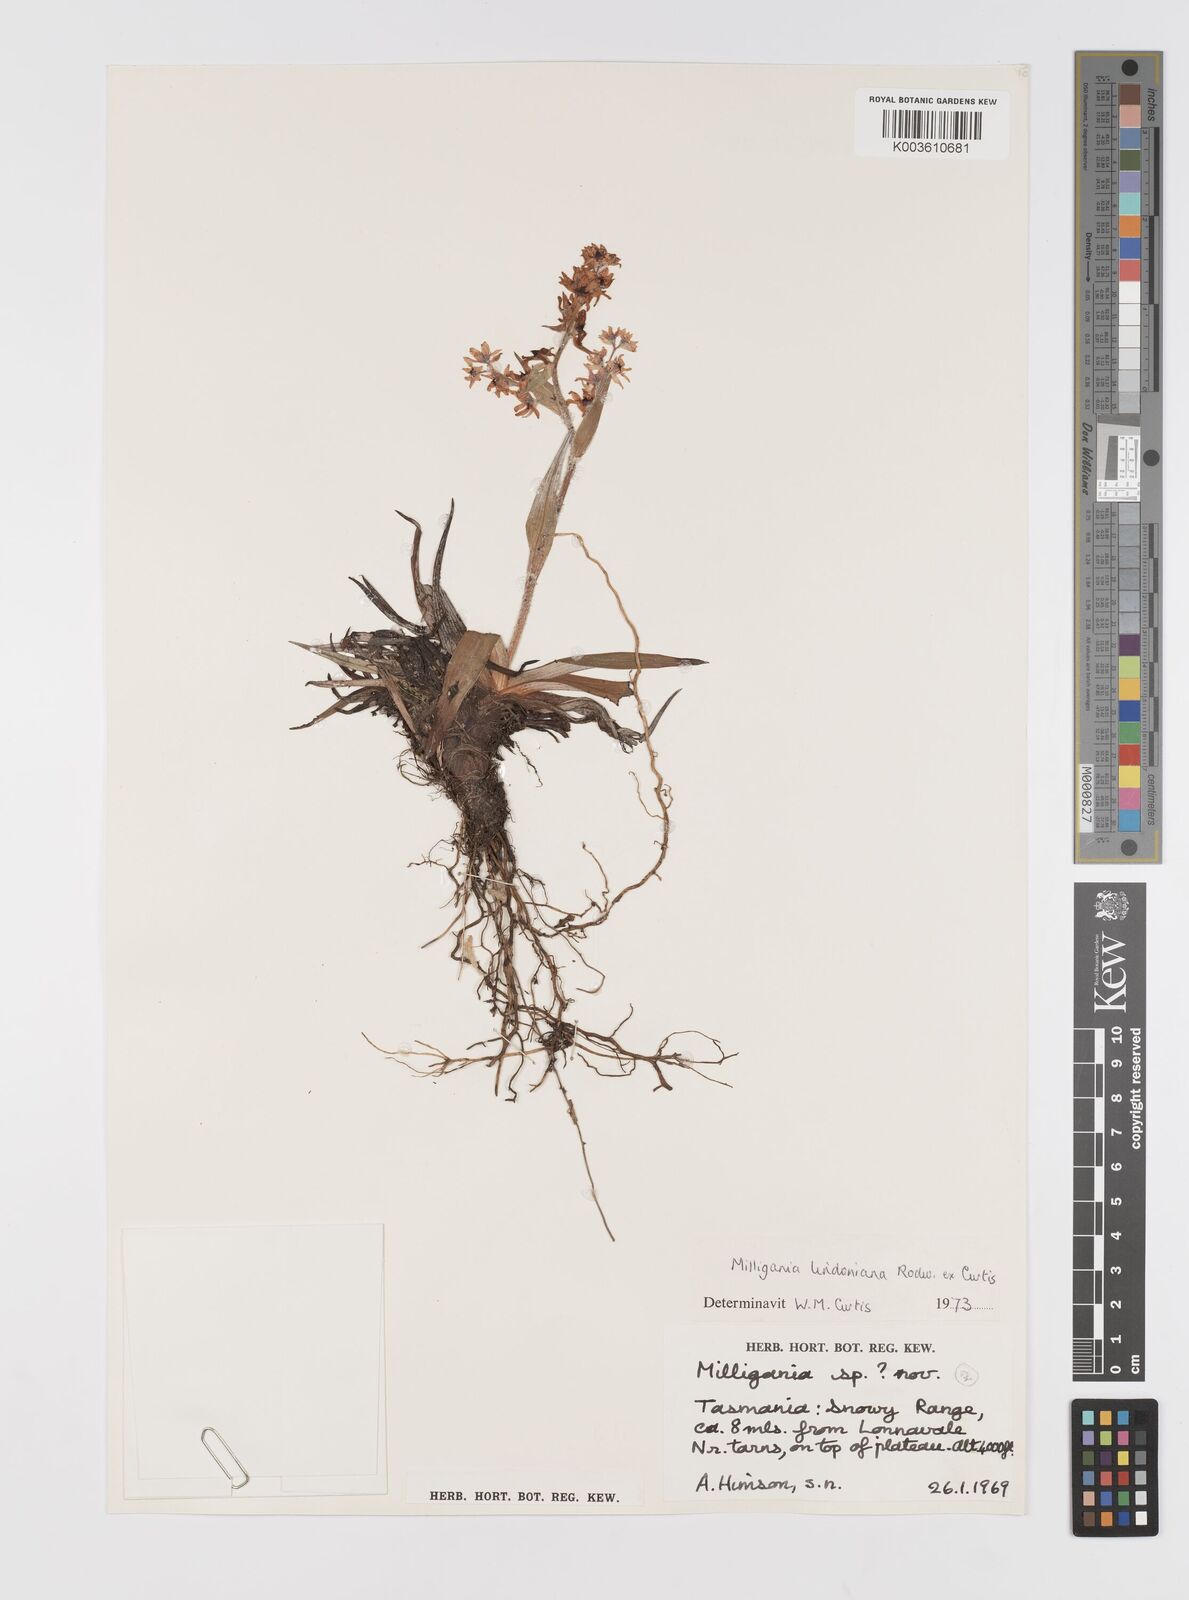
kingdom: Plantae
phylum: Tracheophyta
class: Liliopsida
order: Asparagales
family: Asteliaceae
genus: Milligania
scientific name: Milligania lindoniana
